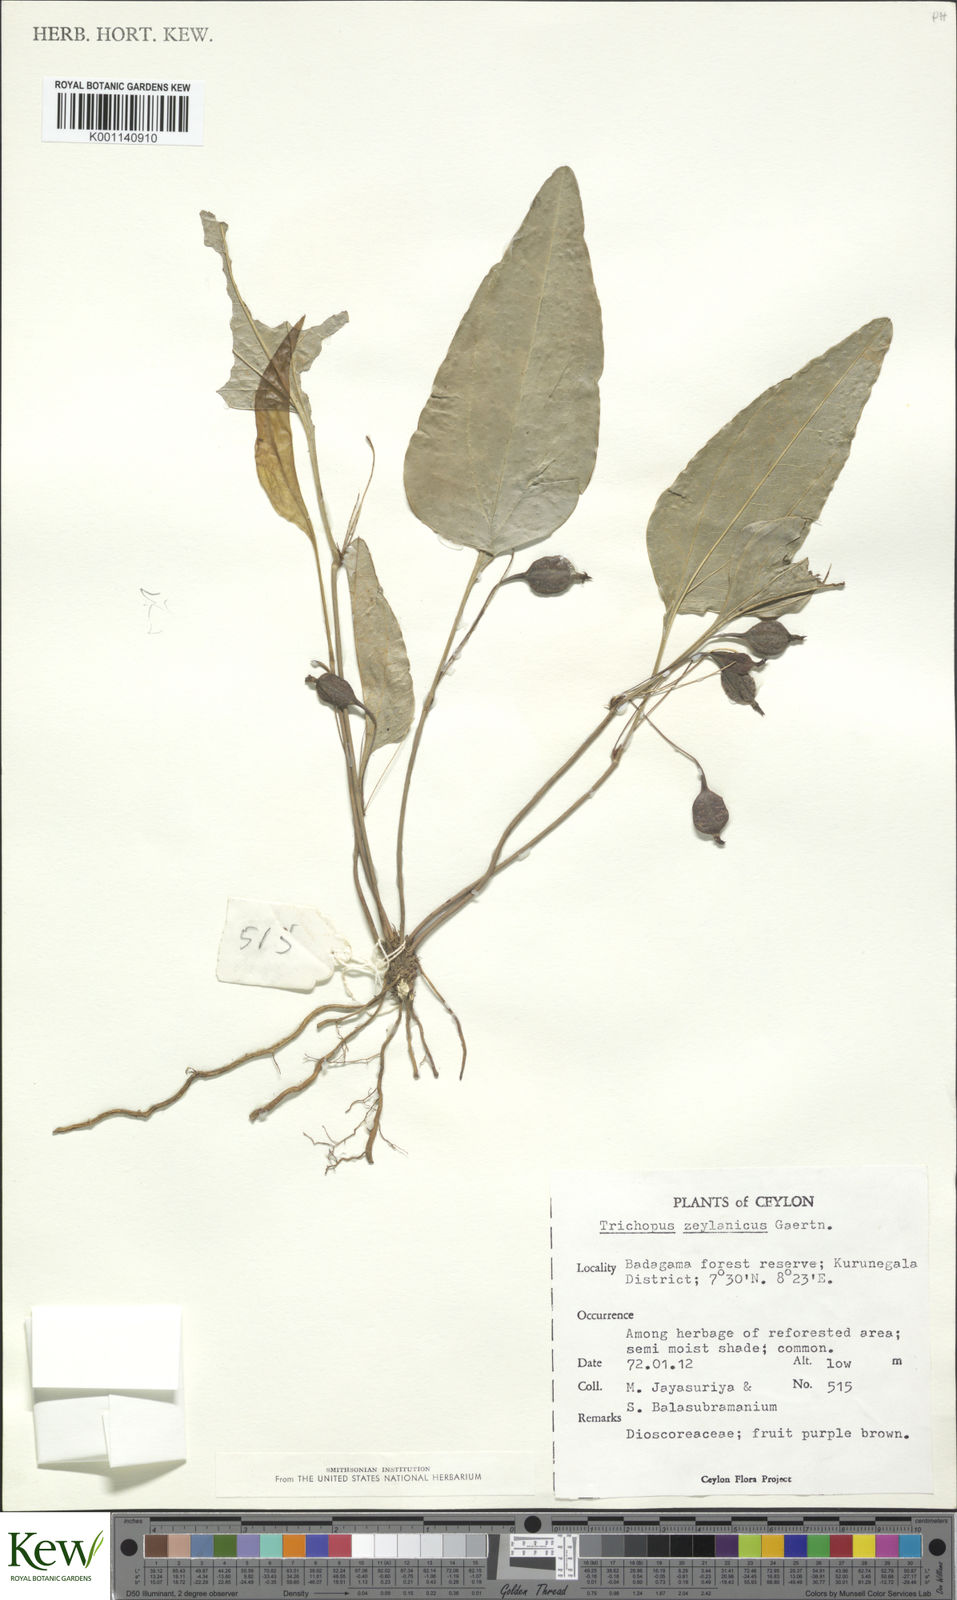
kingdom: Plantae
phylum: Tracheophyta
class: Liliopsida
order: Dioscoreales
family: Dioscoreaceae
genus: Trichopus
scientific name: Trichopus zeylanicus
